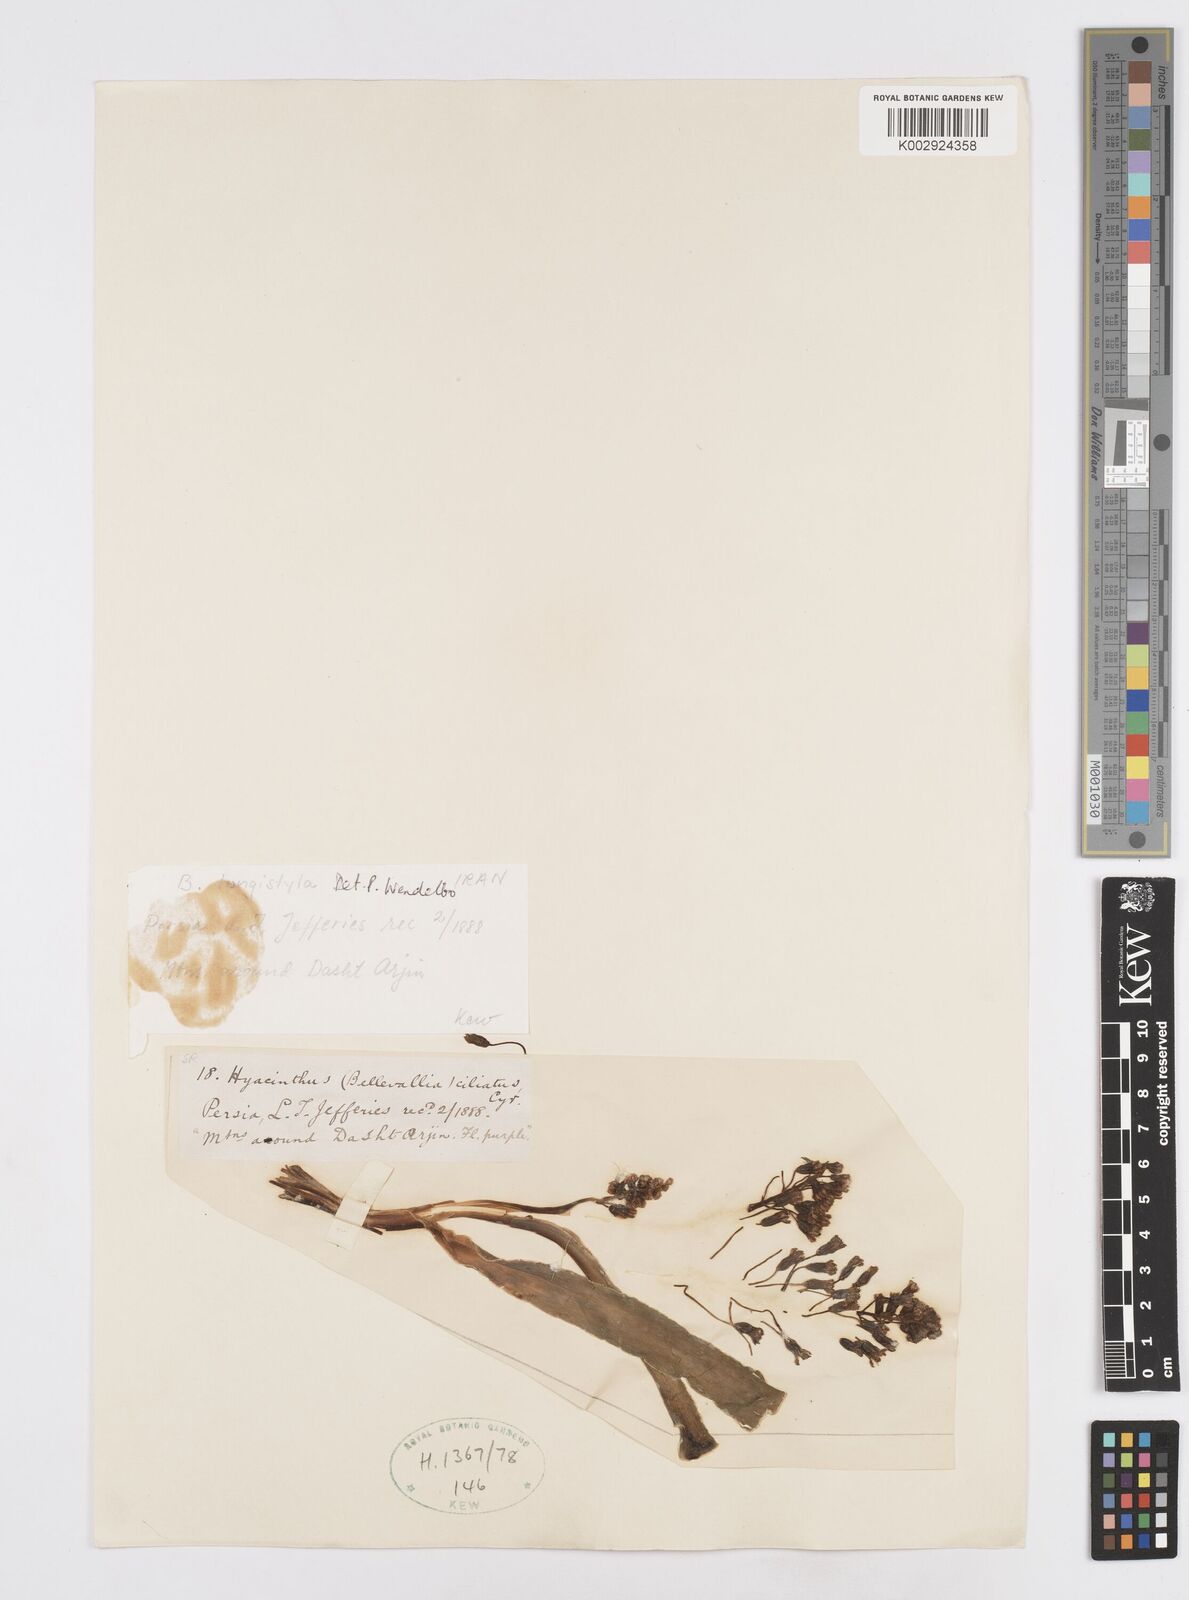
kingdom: Plantae
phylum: Tracheophyta
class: Liliopsida
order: Asparagales
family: Asparagaceae
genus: Bellevalia
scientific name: Bellevalia longistyla
